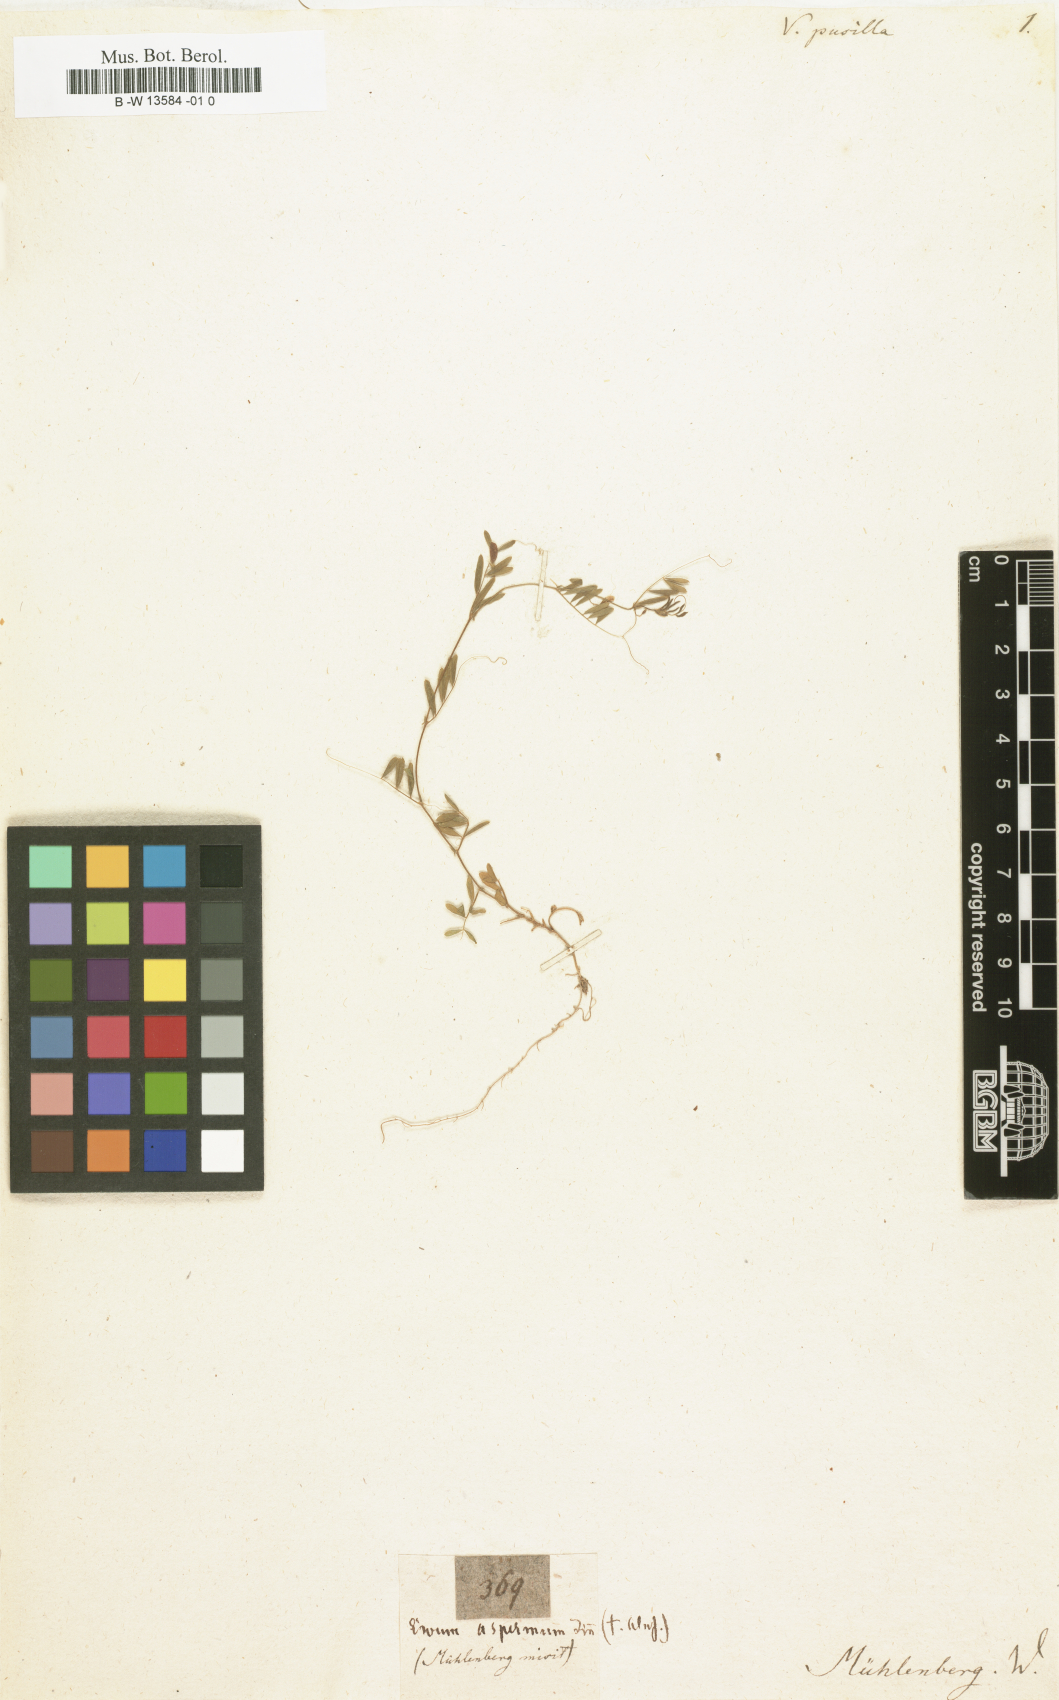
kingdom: Plantae
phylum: Tracheophyta
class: Magnoliopsida
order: Fabales
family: Fabaceae
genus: Vicia
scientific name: Vicia tetrasperma
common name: Smooth tare
